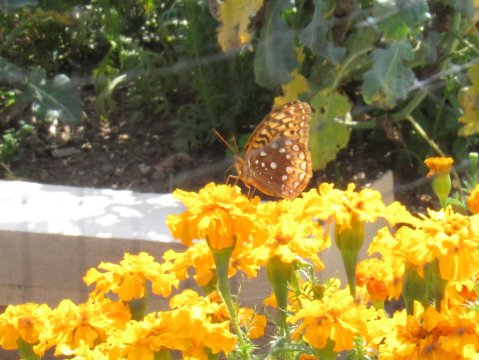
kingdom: Animalia
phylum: Arthropoda
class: Insecta
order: Lepidoptera
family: Nymphalidae
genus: Speyeria
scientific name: Speyeria cybele
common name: Great Spangled Fritillary
